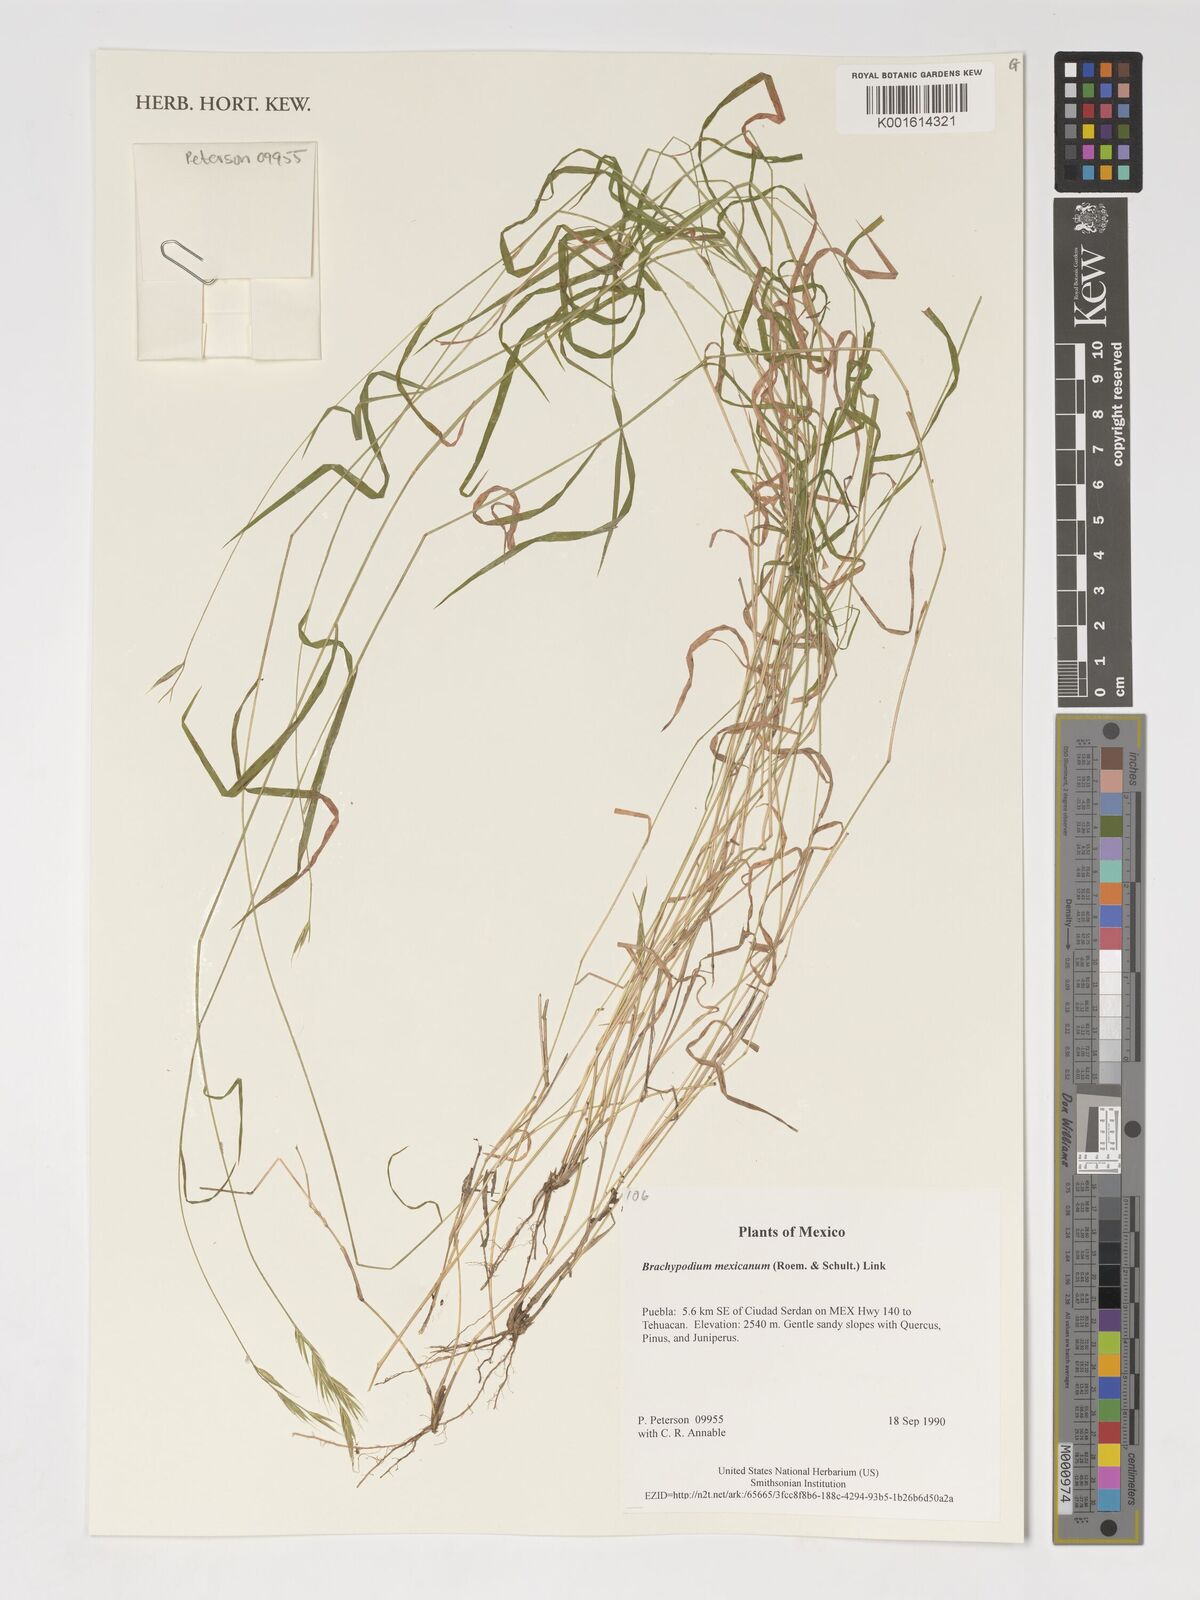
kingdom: Plantae
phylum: Tracheophyta
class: Liliopsida
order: Poales
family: Poaceae
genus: Brachypodium
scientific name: Brachypodium mexicanum
